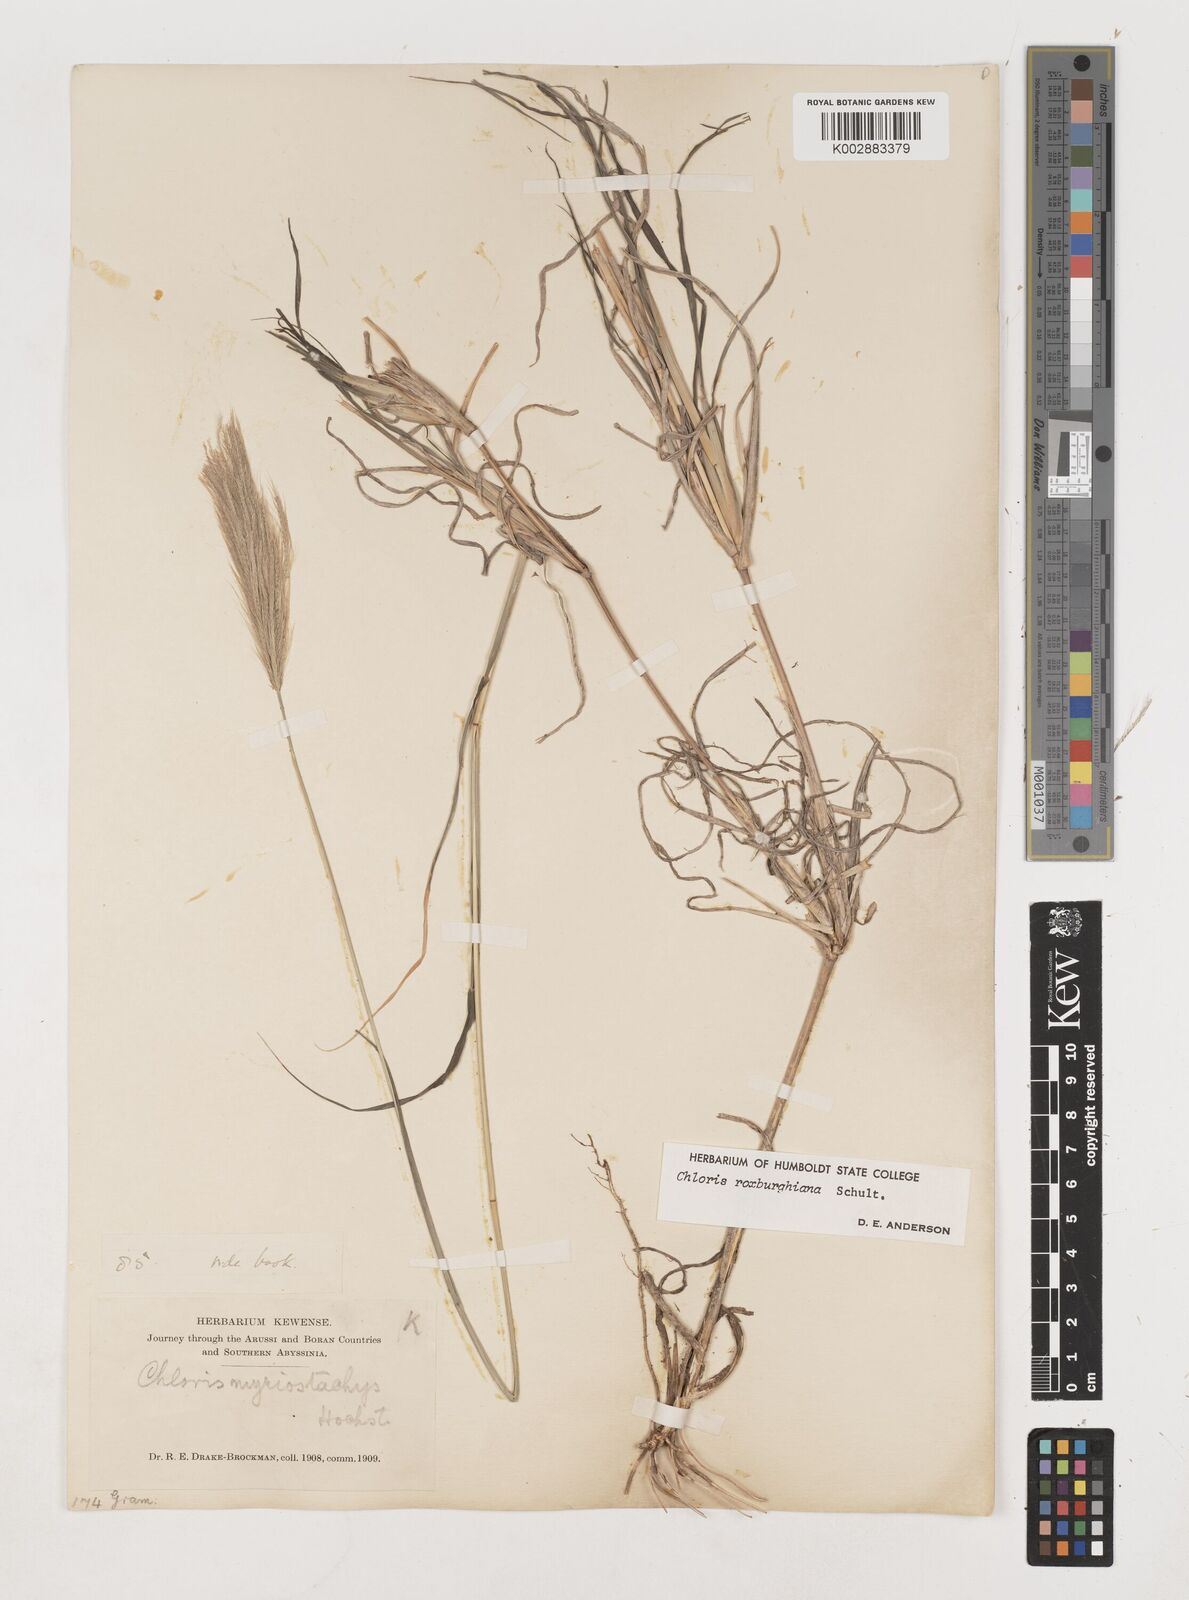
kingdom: Plantae
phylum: Tracheophyta
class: Liliopsida
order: Poales
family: Poaceae
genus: Tetrapogon
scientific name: Tetrapogon roxburghiana
